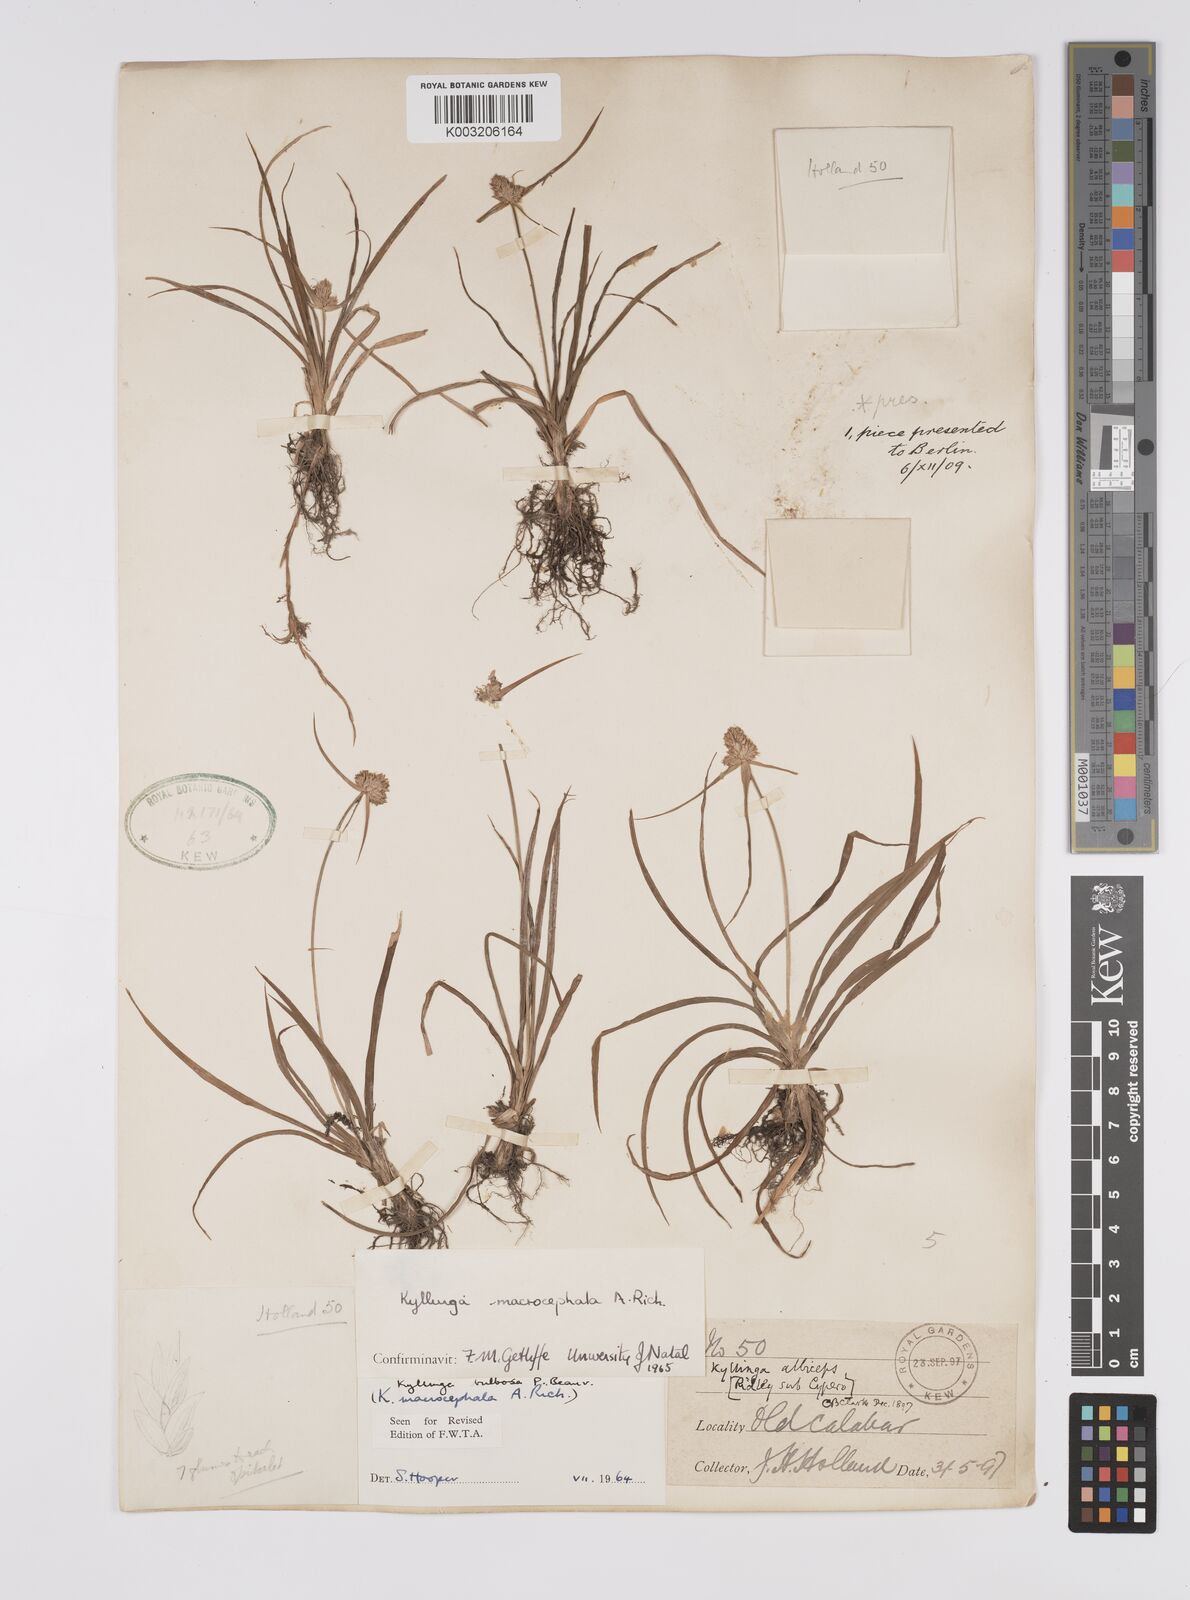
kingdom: Plantae
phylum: Tracheophyta
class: Liliopsida
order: Poales
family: Cyperaceae
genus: Cyperus
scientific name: Cyperus
